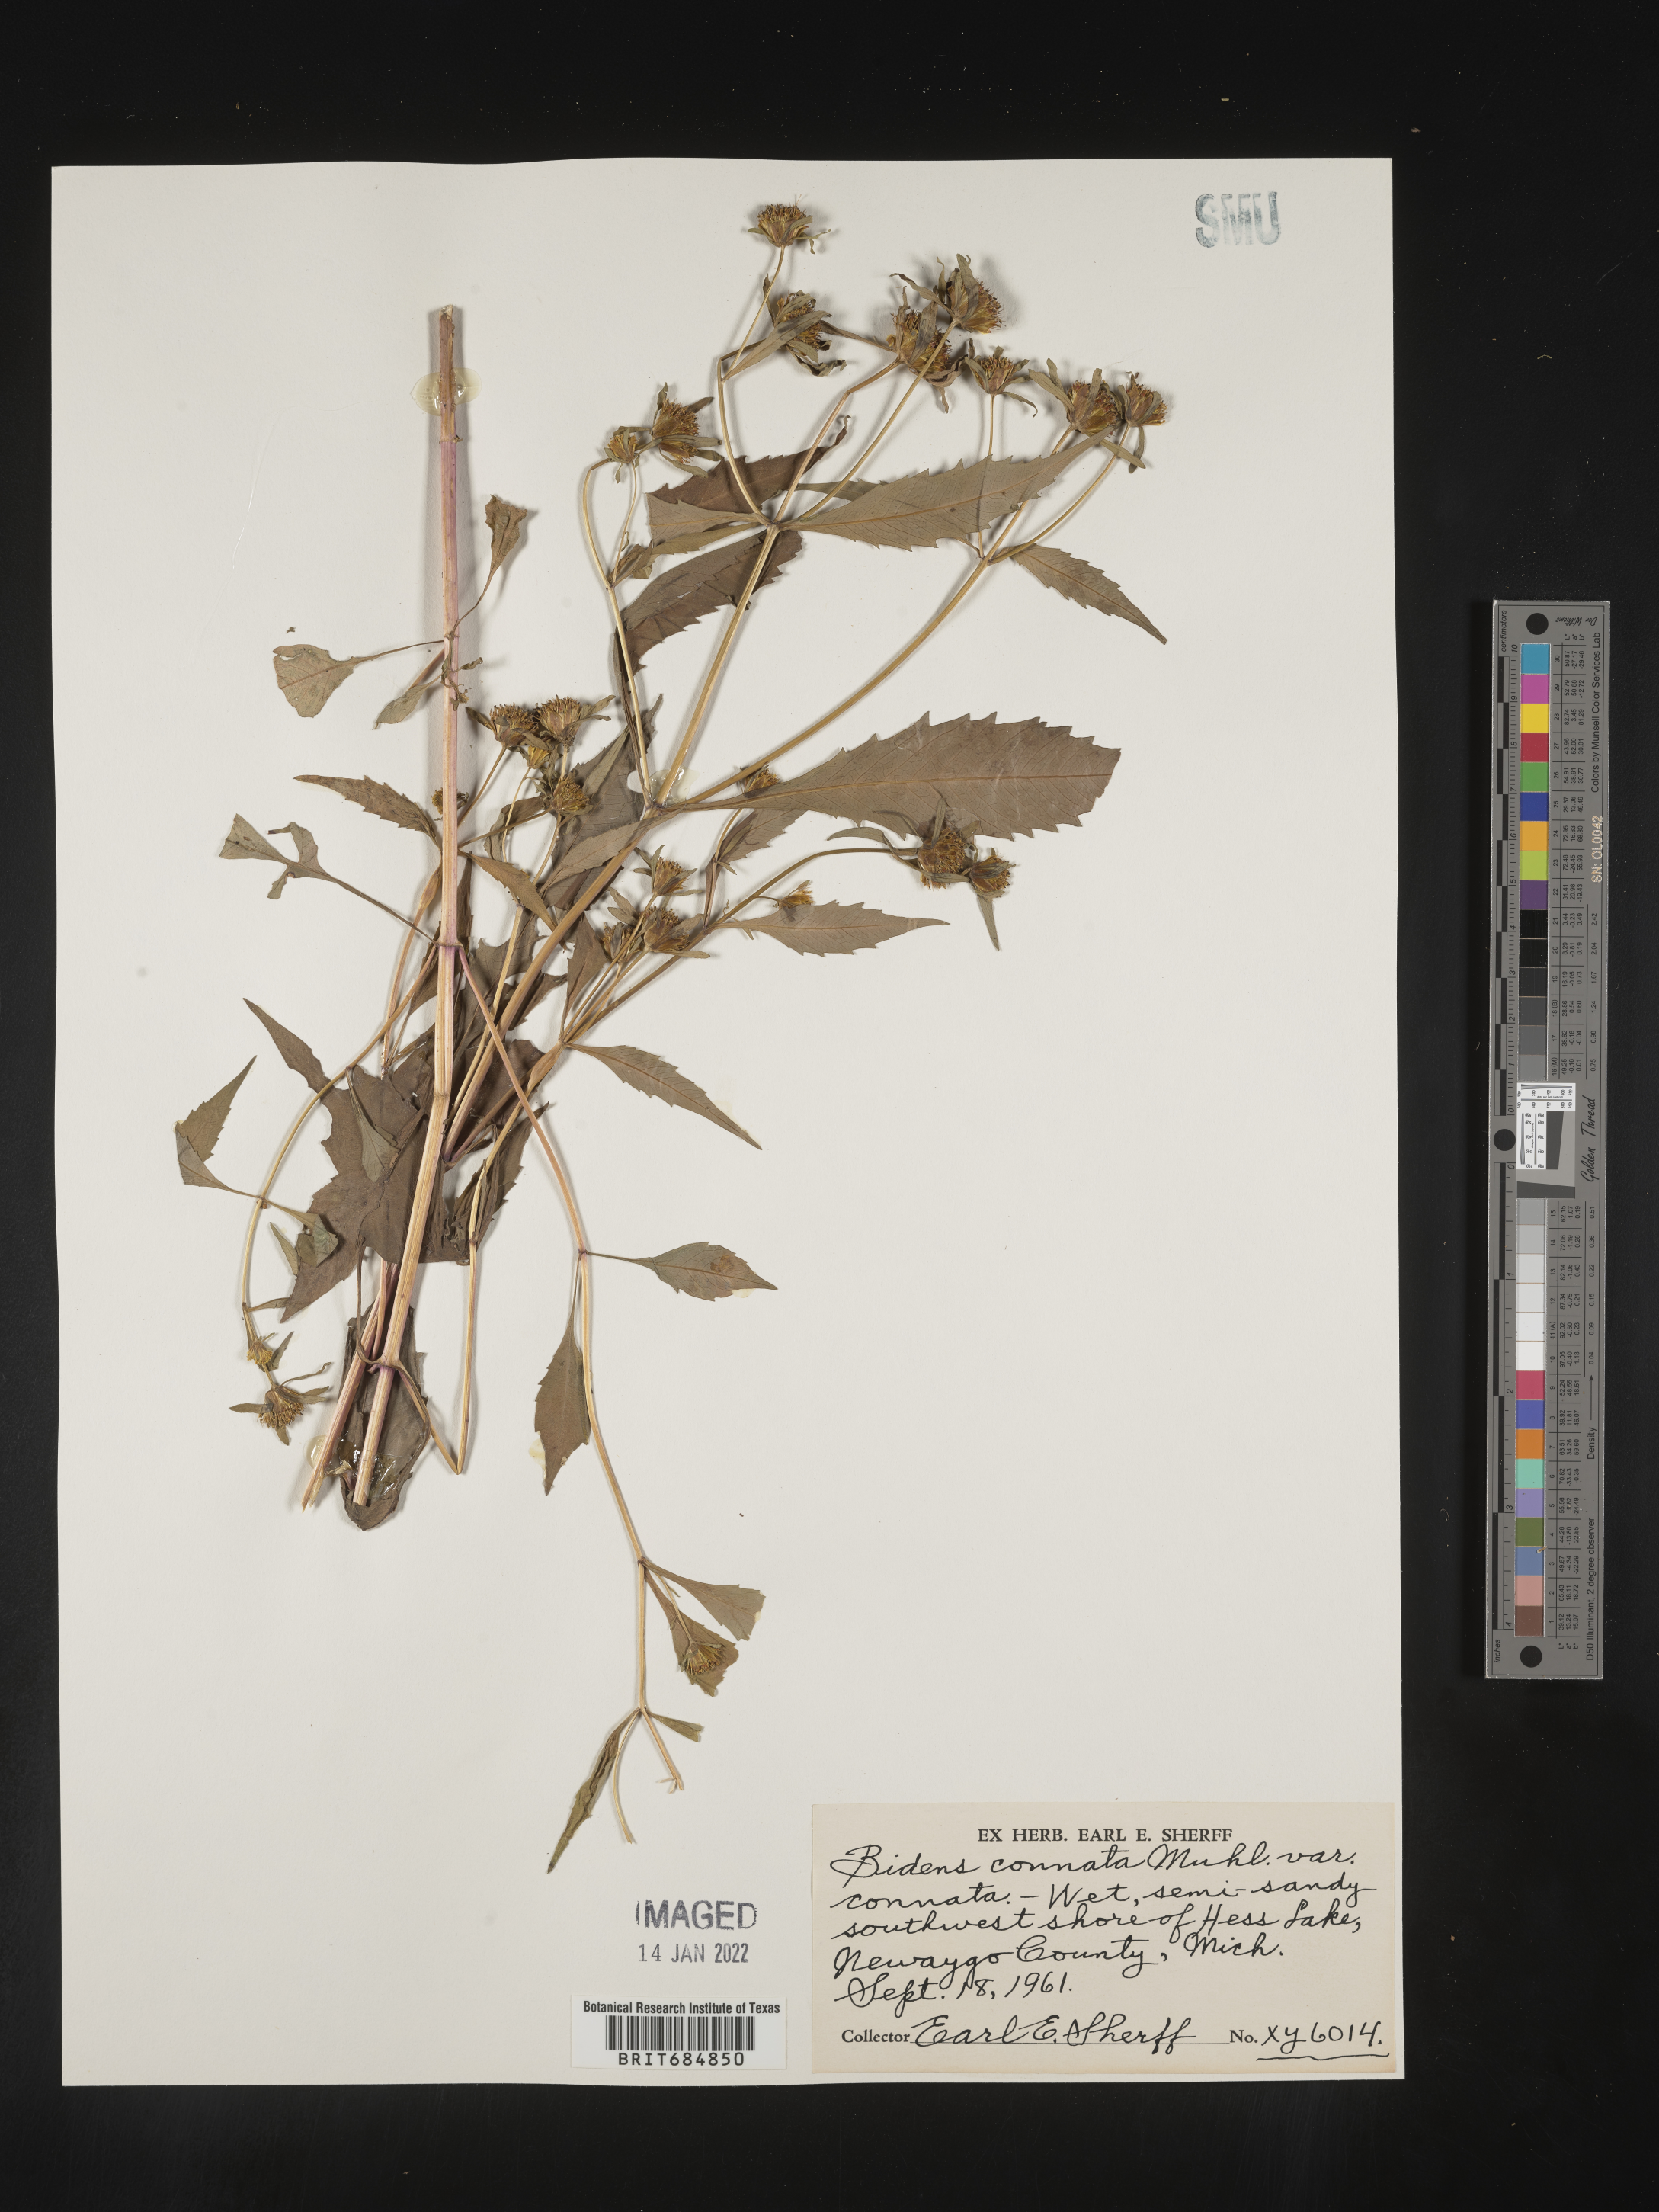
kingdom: Plantae
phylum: Tracheophyta
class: Magnoliopsida
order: Asterales
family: Asteraceae
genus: Bidens
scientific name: Bidens tripartita
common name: Trifid bur-marigold
